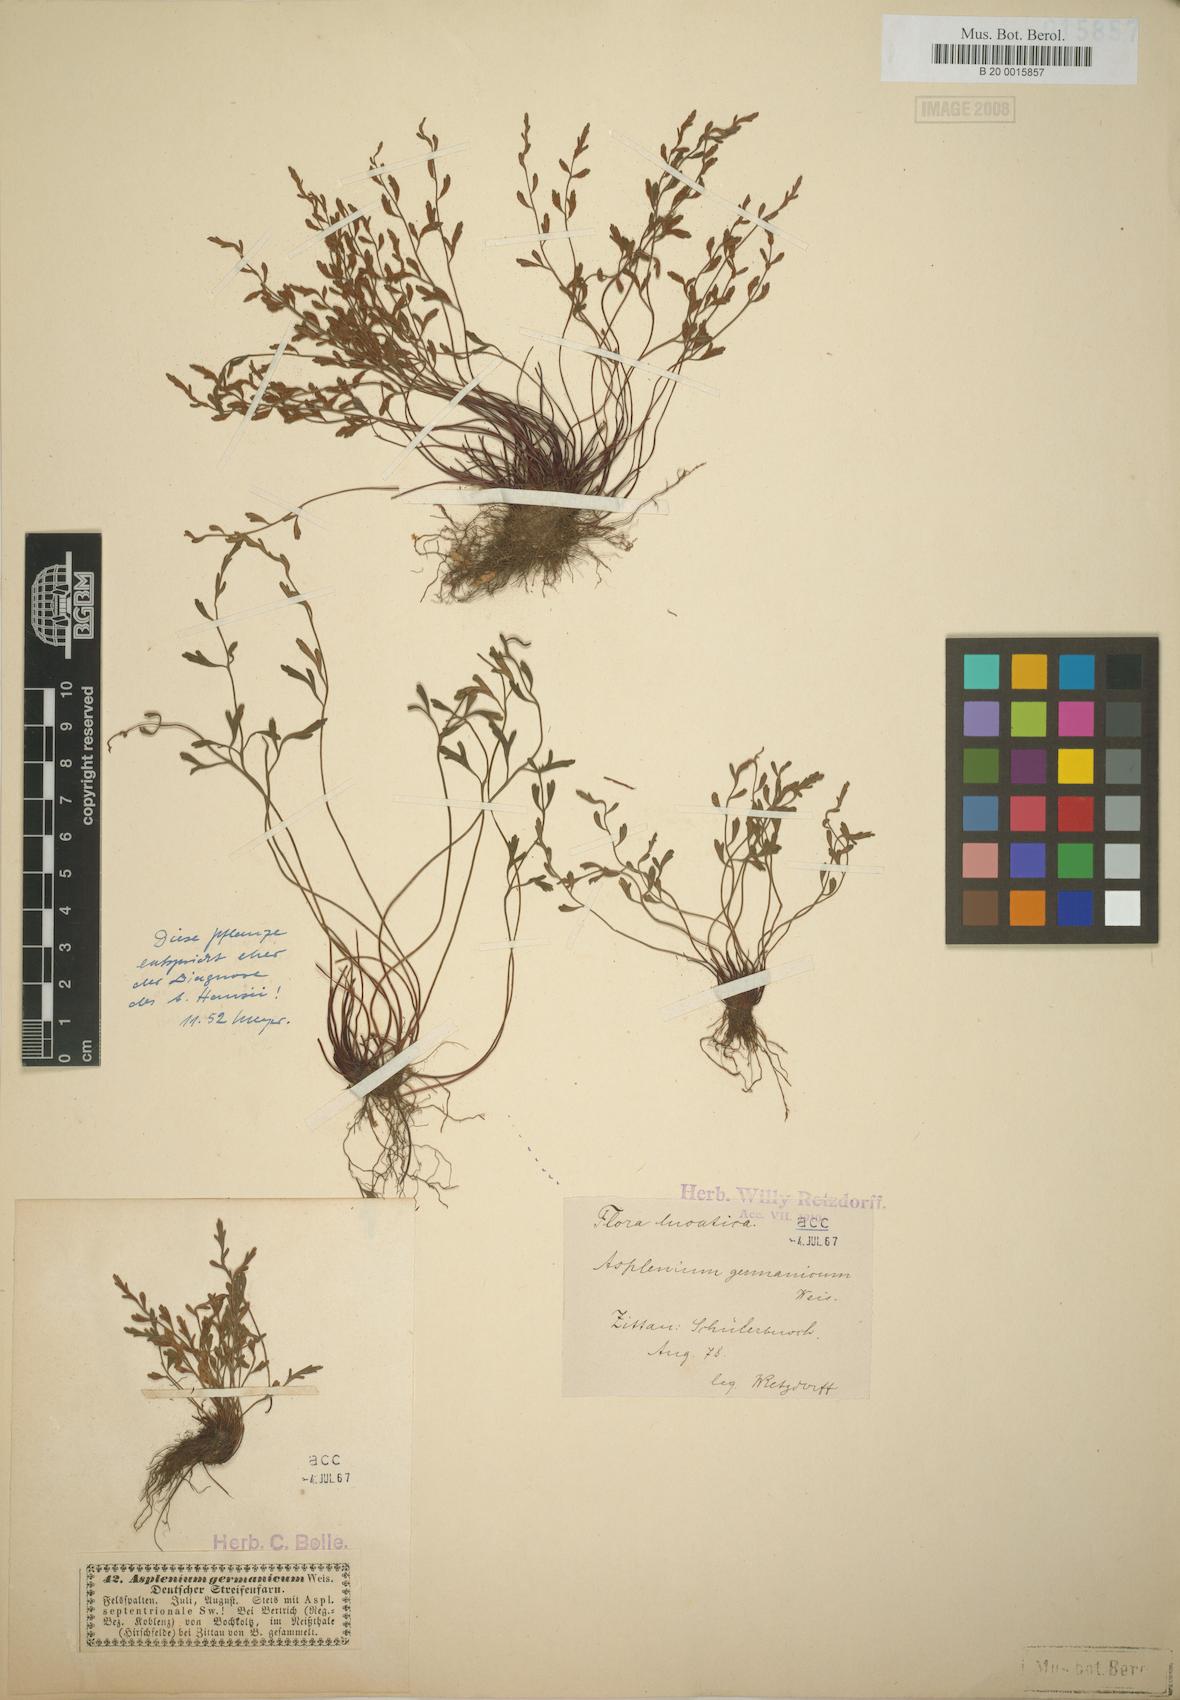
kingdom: Plantae
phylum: Tracheophyta
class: Polypodiopsida
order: Polypodiales
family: Aspleniaceae
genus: Asplenium
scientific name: Asplenium alternifolium
